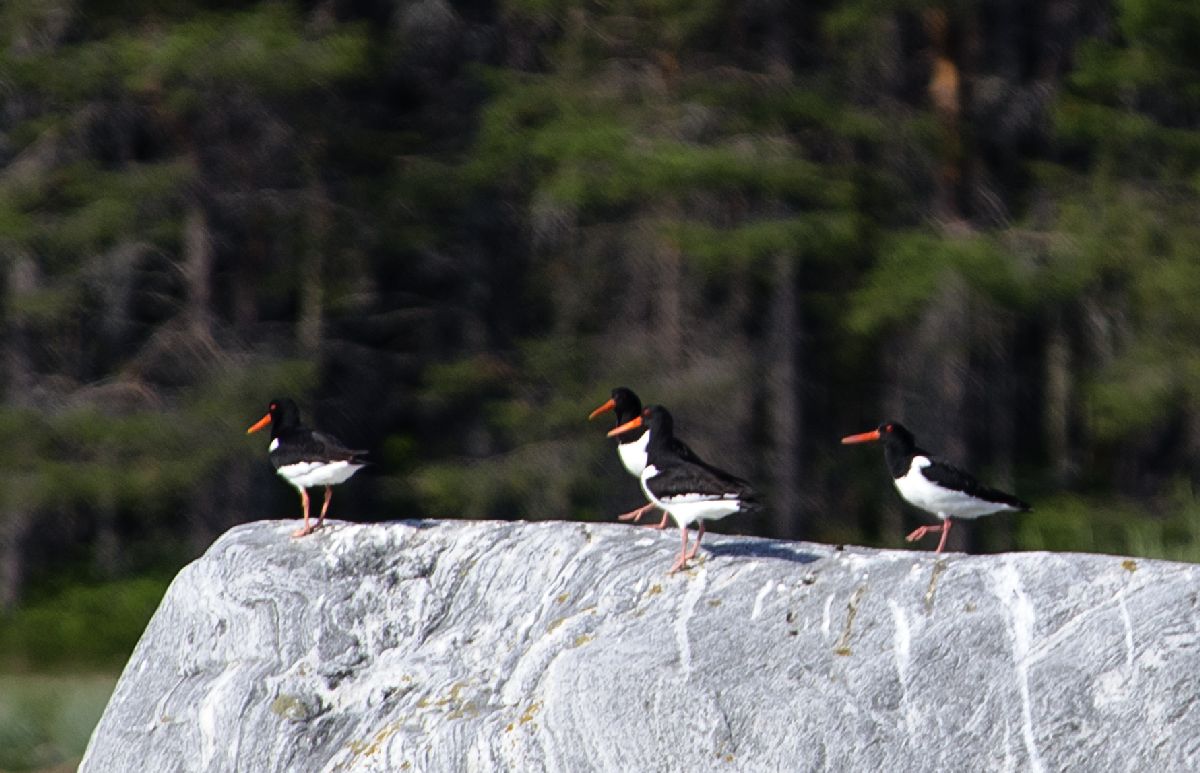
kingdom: Animalia
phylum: Chordata
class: Aves
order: Charadriiformes
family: Haematopodidae
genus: Haematopus
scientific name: Haematopus ostralegus
